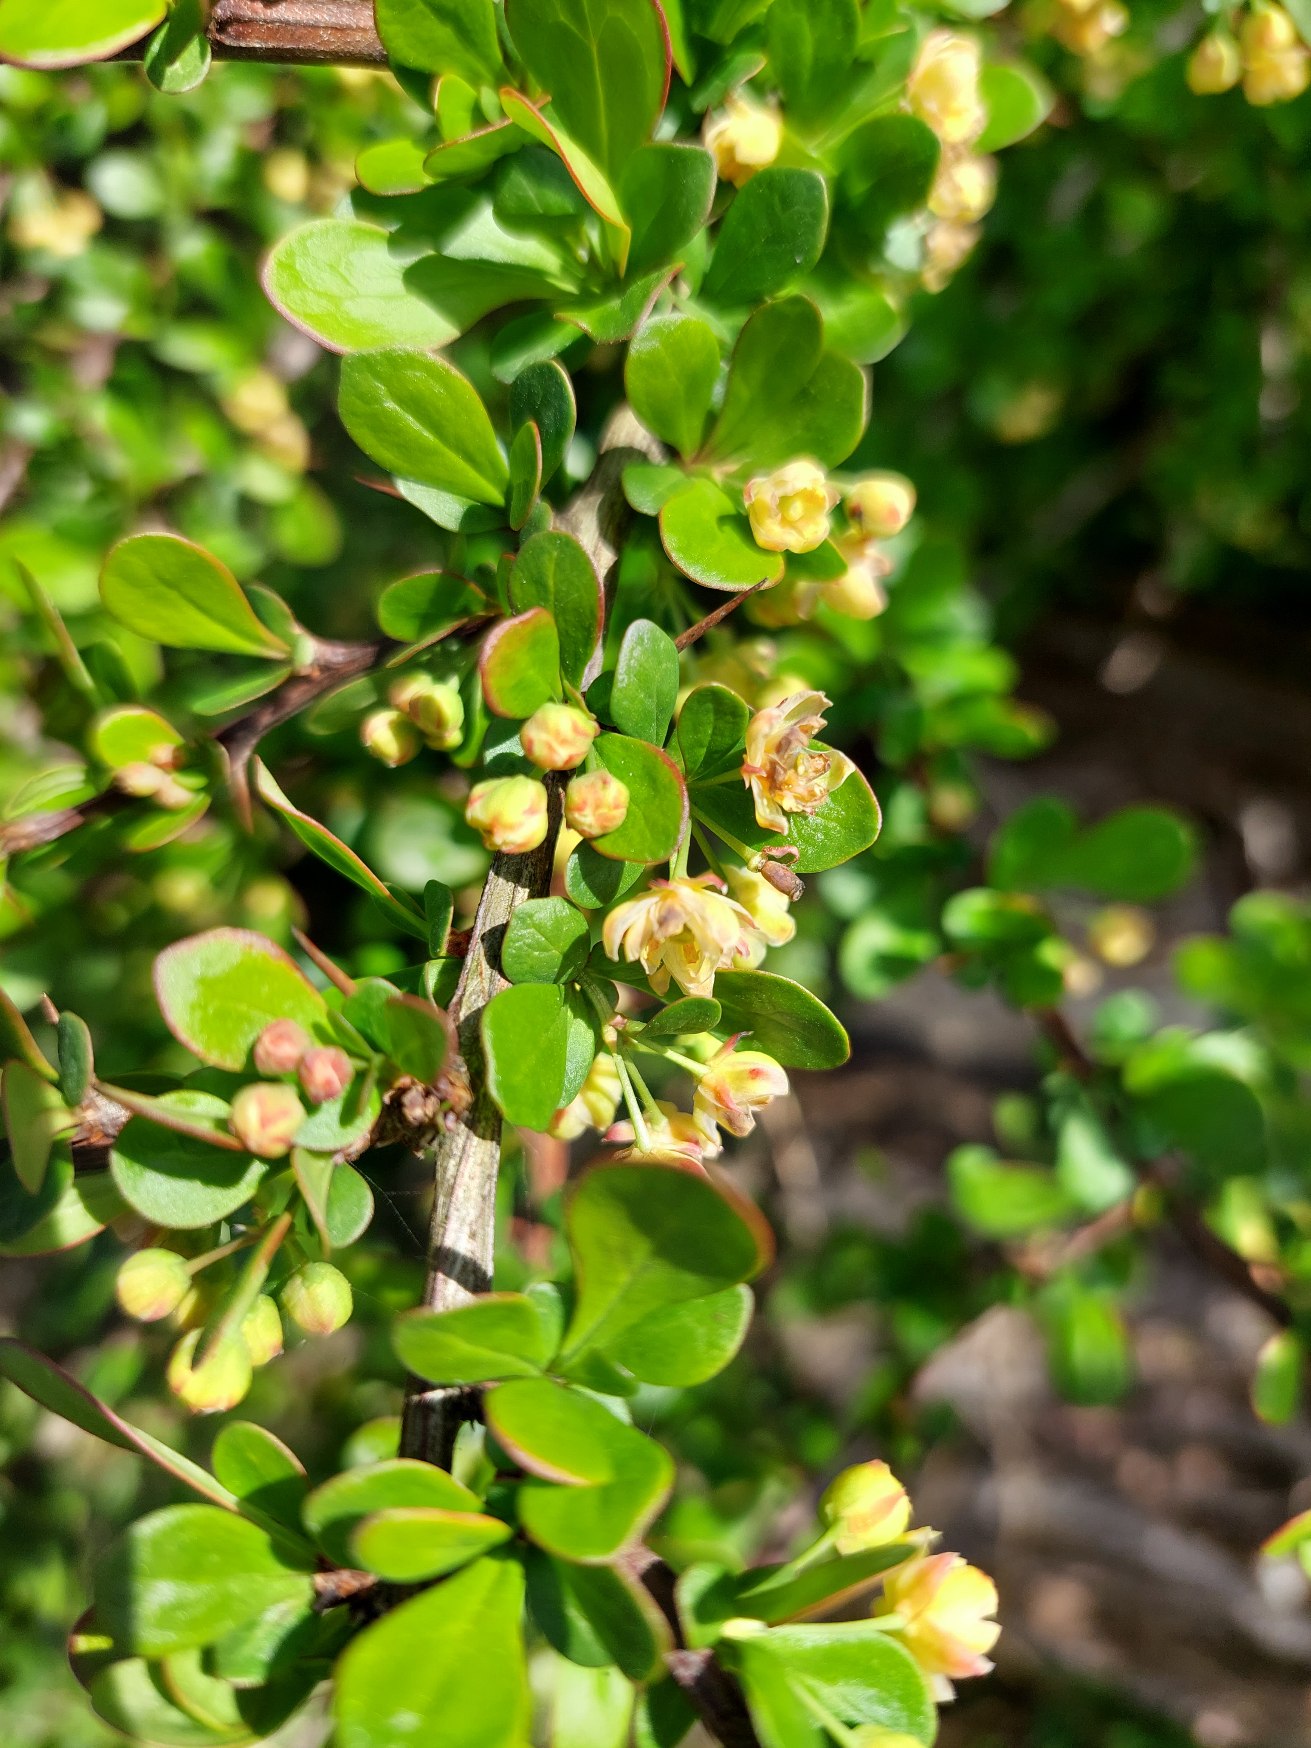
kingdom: Plantae
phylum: Tracheophyta
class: Magnoliopsida
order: Ranunculales
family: Berberidaceae
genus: Berberis
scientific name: Berberis thunbergii
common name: Hæk-berberis
